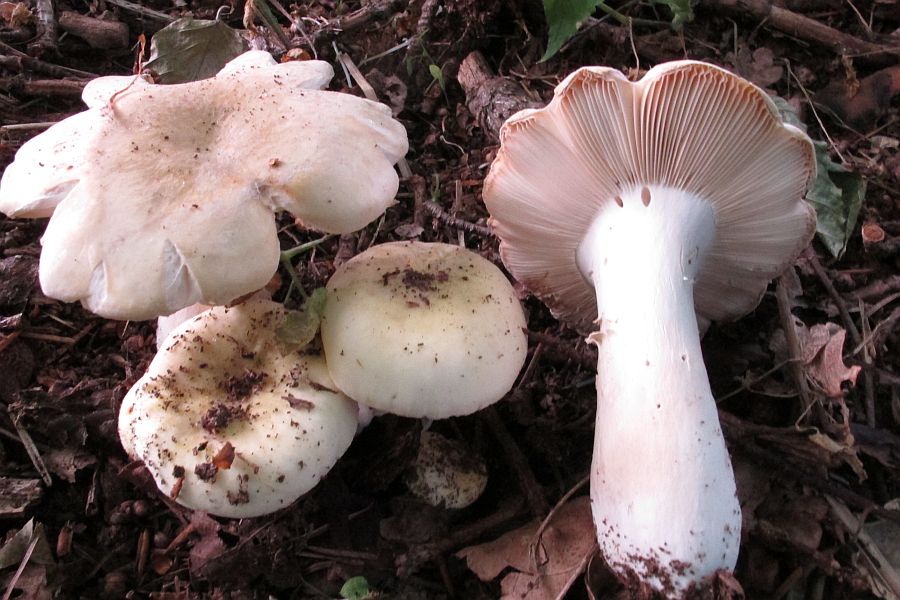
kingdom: Fungi
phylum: Basidiomycota
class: Agaricomycetes
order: Russulales
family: Russulaceae
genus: Russula
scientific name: Russula violeipes
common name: ferskengul skørhat
